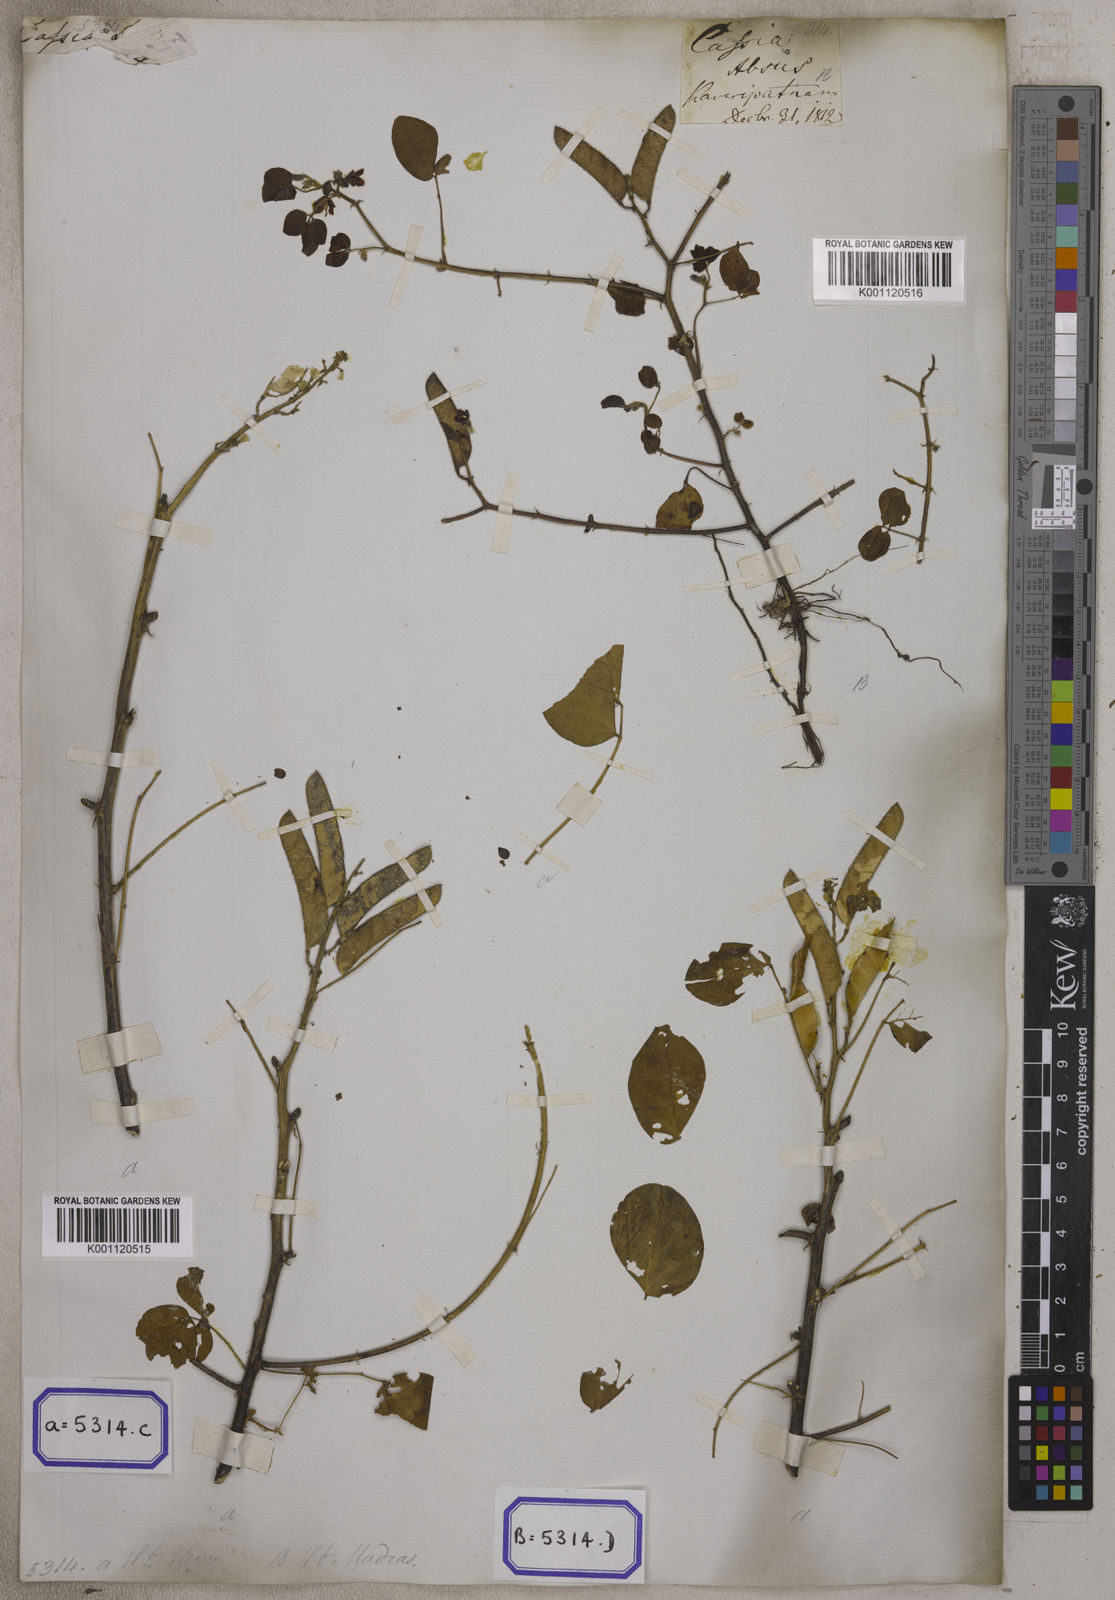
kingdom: Plantae
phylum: Tracheophyta
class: Magnoliopsida
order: Fabales
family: Fabaceae
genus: Chamaecrista
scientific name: Chamaecrista absus
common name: Tropical sensitive pea
